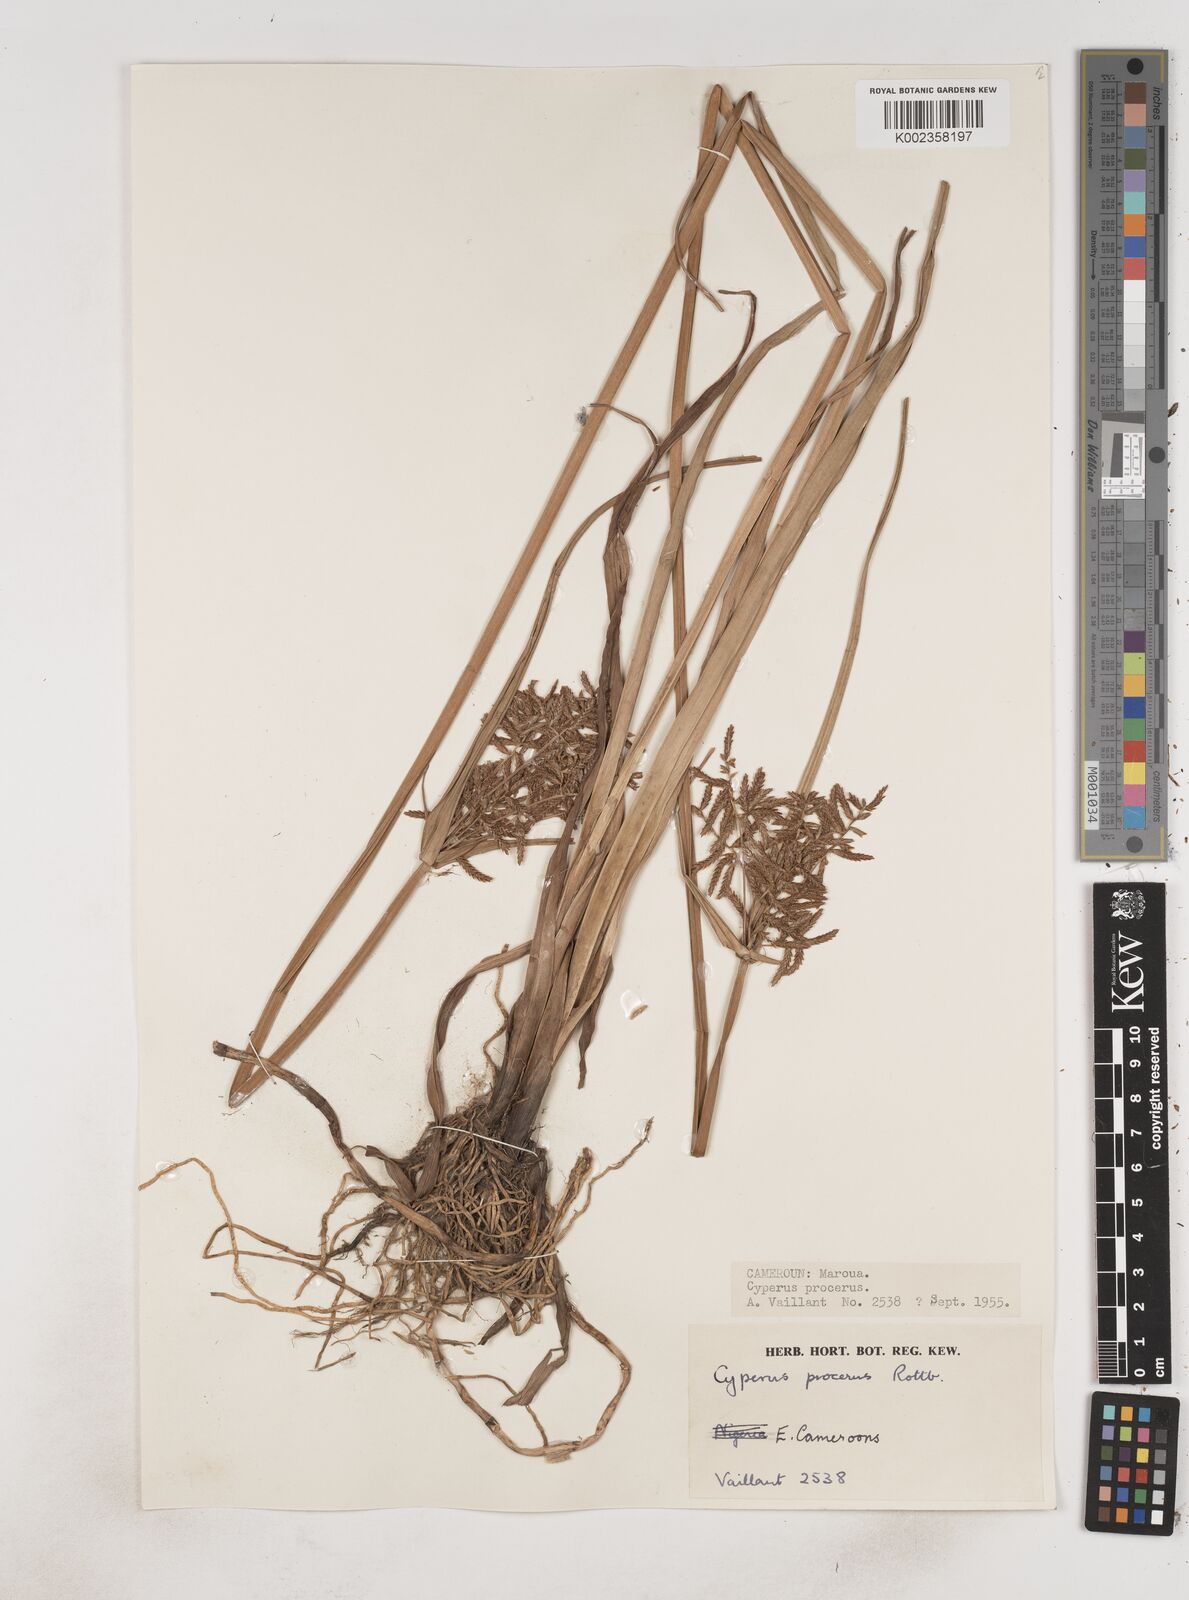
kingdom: Plantae
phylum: Tracheophyta
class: Liliopsida
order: Poales
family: Cyperaceae
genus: Cyperus
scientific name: Cyperus procerus
